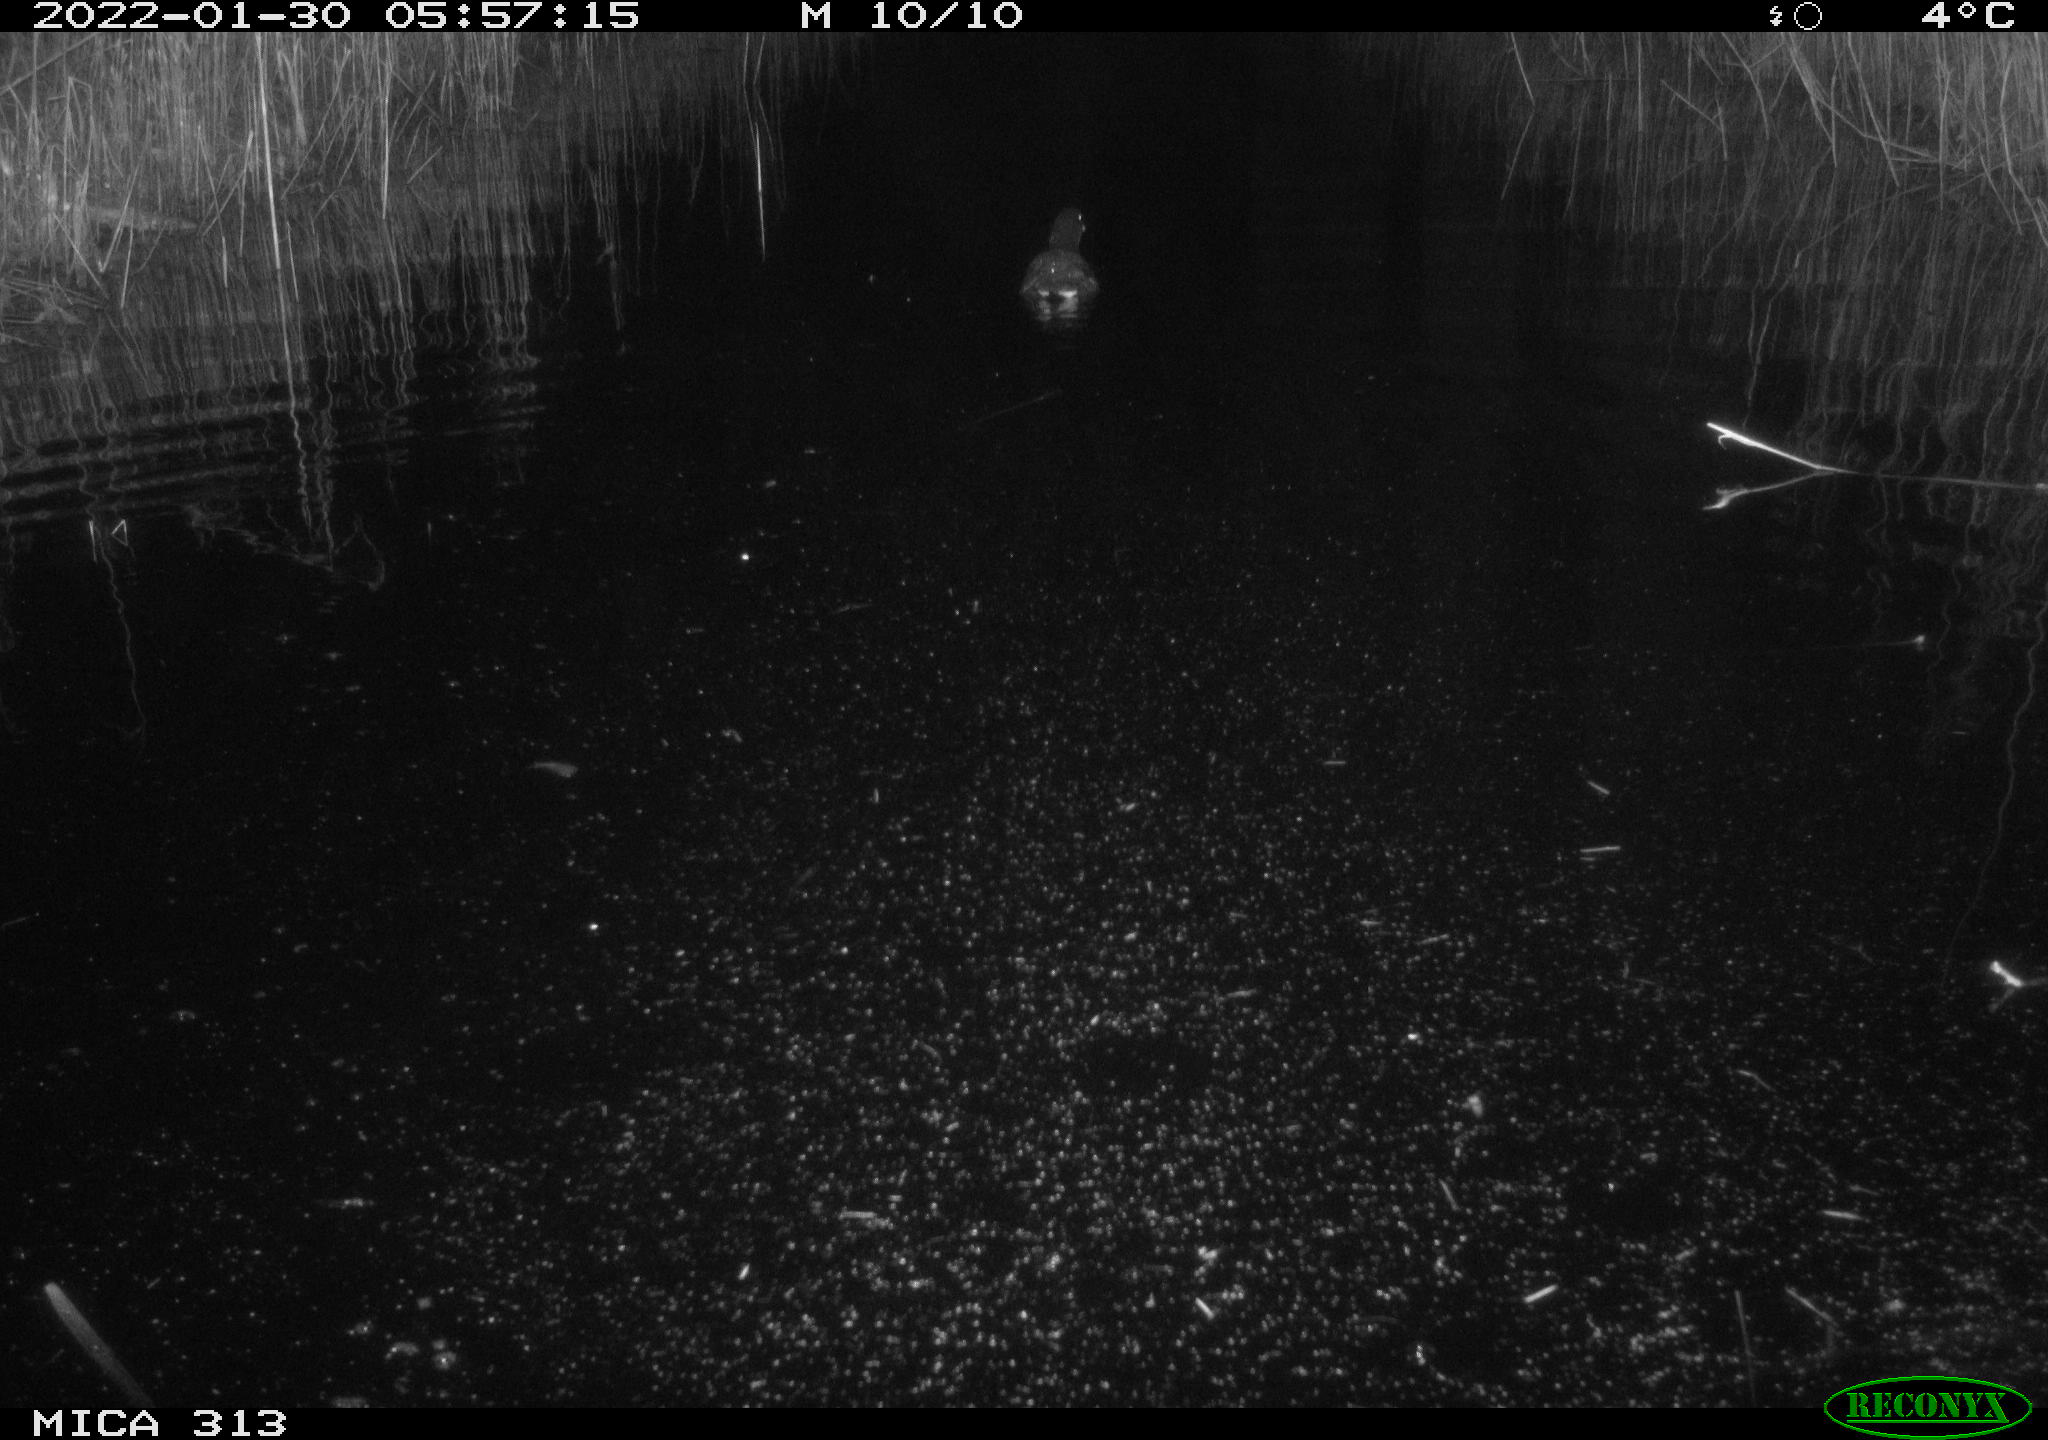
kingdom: Animalia
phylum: Chordata
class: Aves
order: Gruiformes
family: Rallidae
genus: Gallinula
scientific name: Gallinula chloropus
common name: Common moorhen
